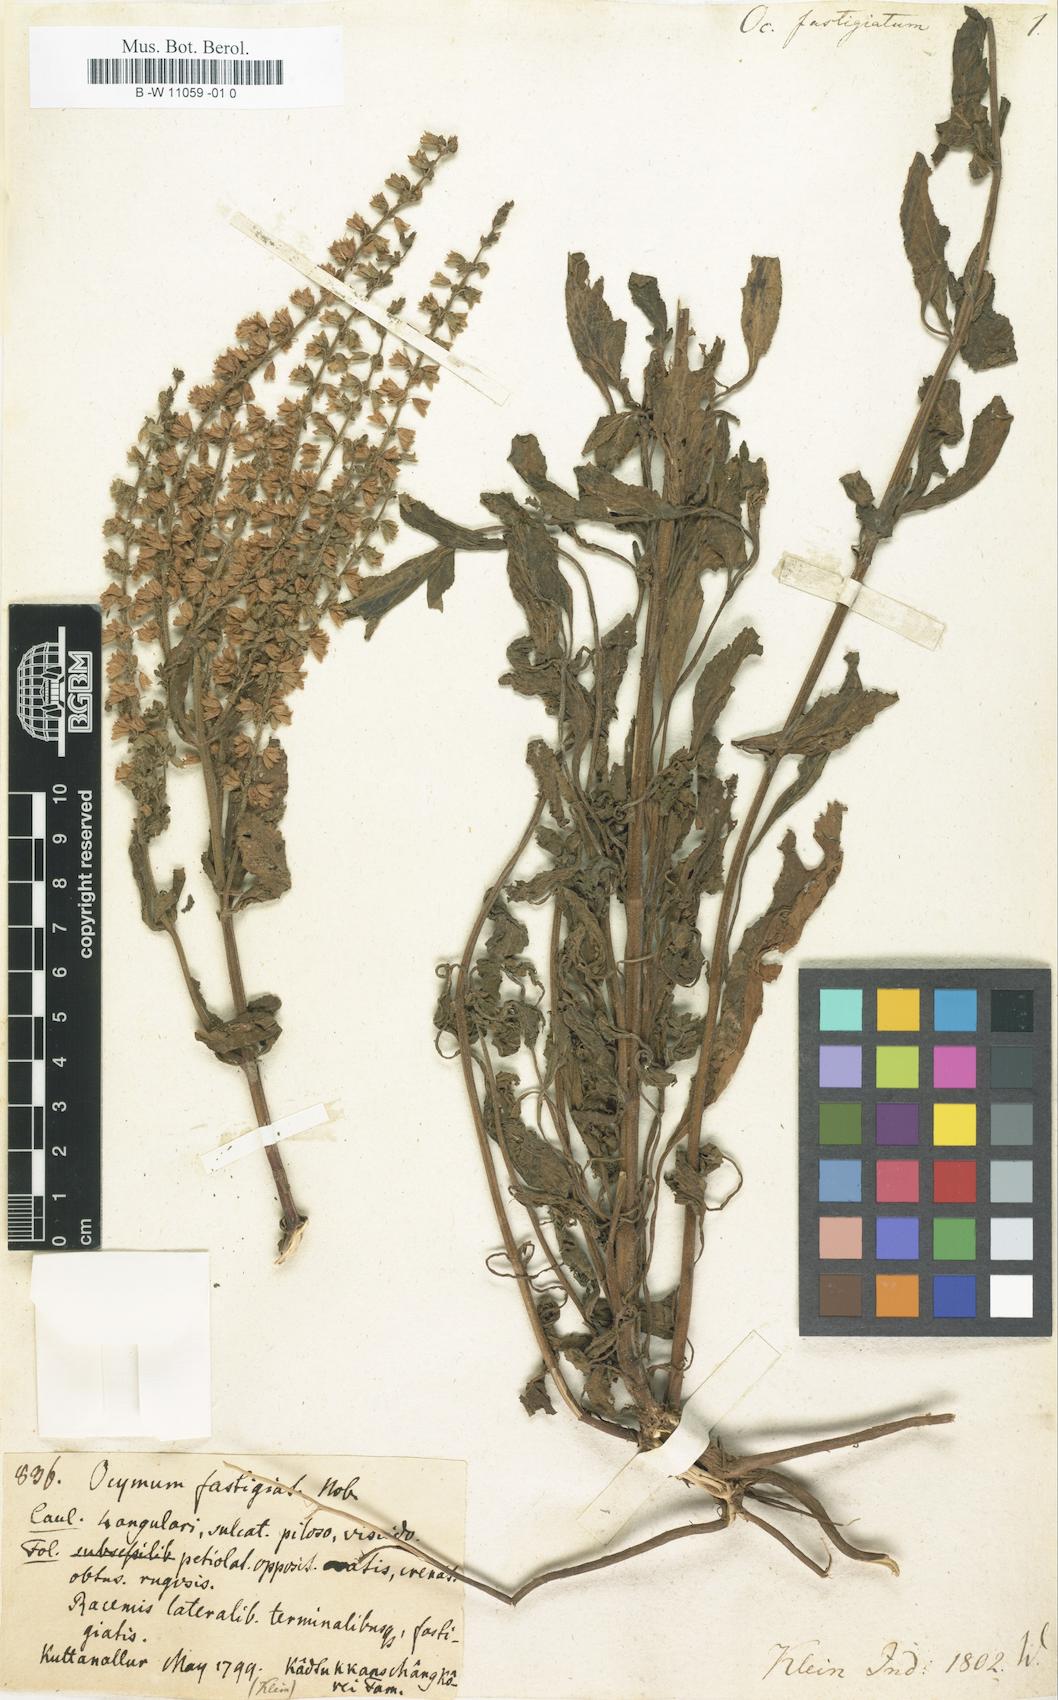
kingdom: Plantae
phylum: Tracheophyta
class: Magnoliopsida
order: Lamiales
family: Lamiaceae
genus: Salvia
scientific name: Salvia plebeia
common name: Australian sage
